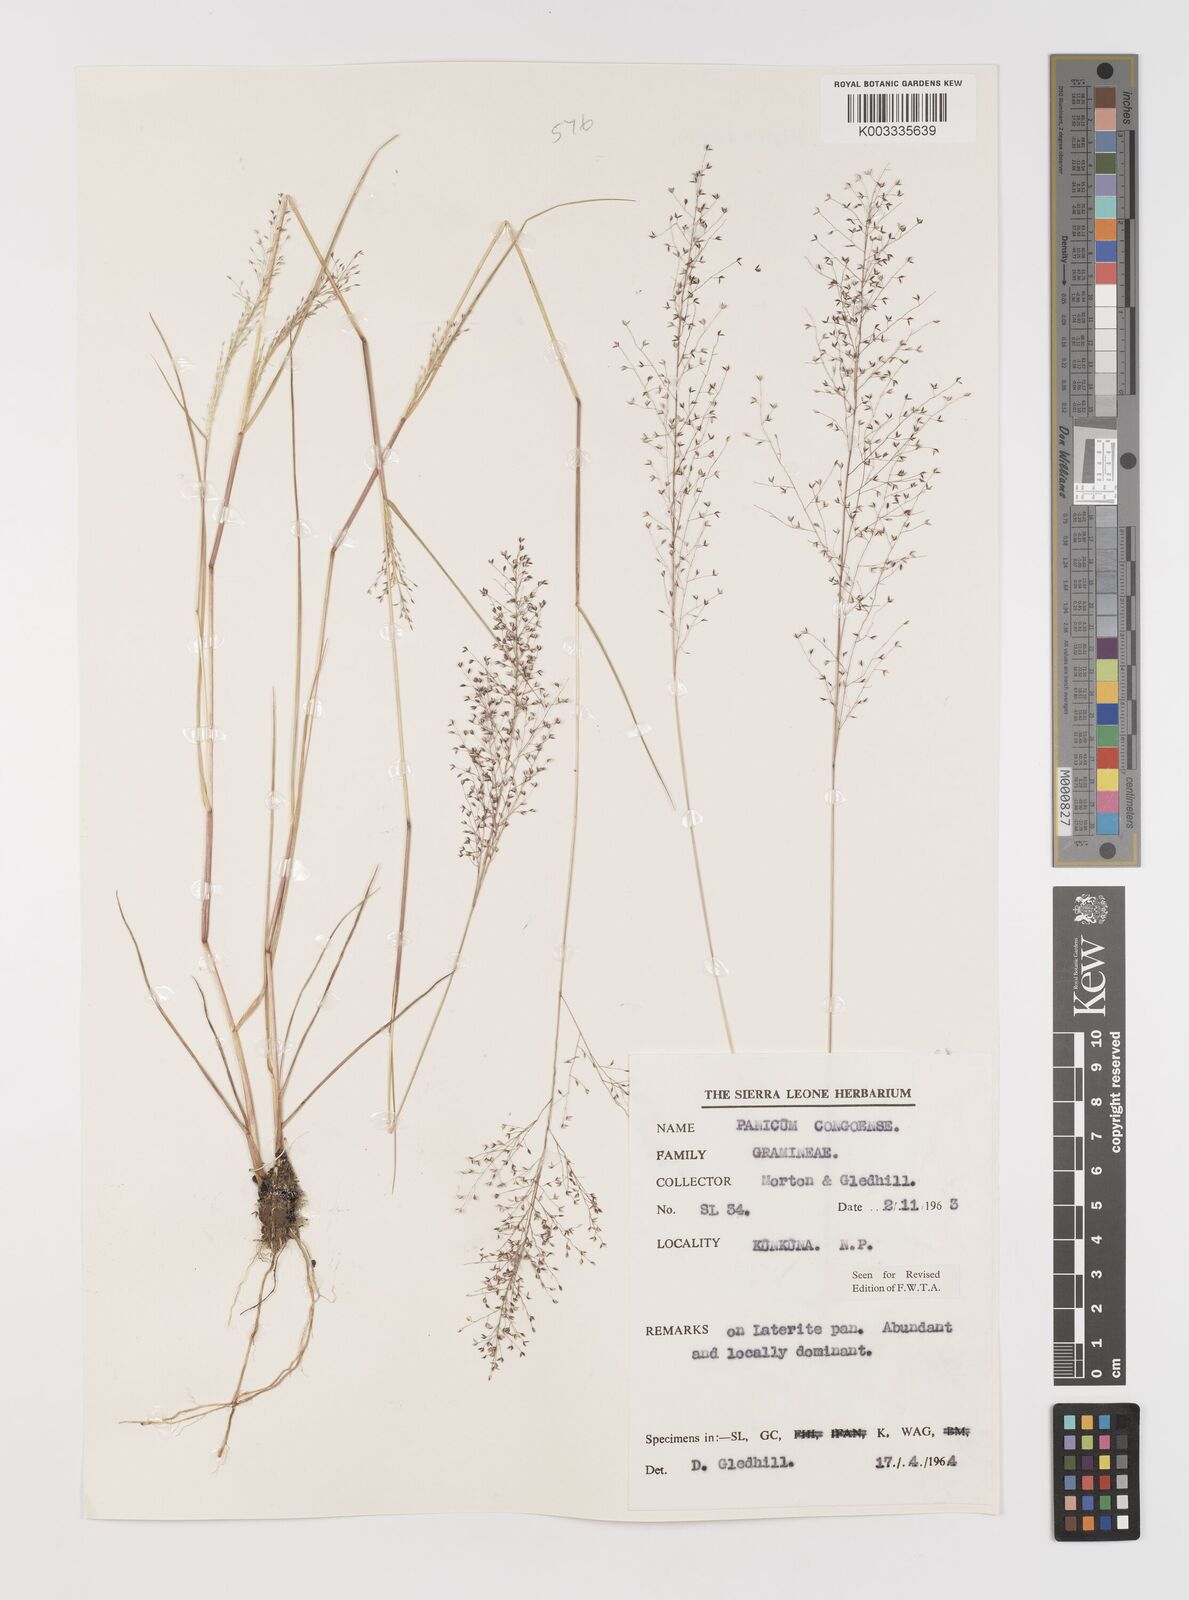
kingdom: Plantae
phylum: Tracheophyta
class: Liliopsida
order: Poales
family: Poaceae
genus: Panicum
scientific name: Panicum congoense
